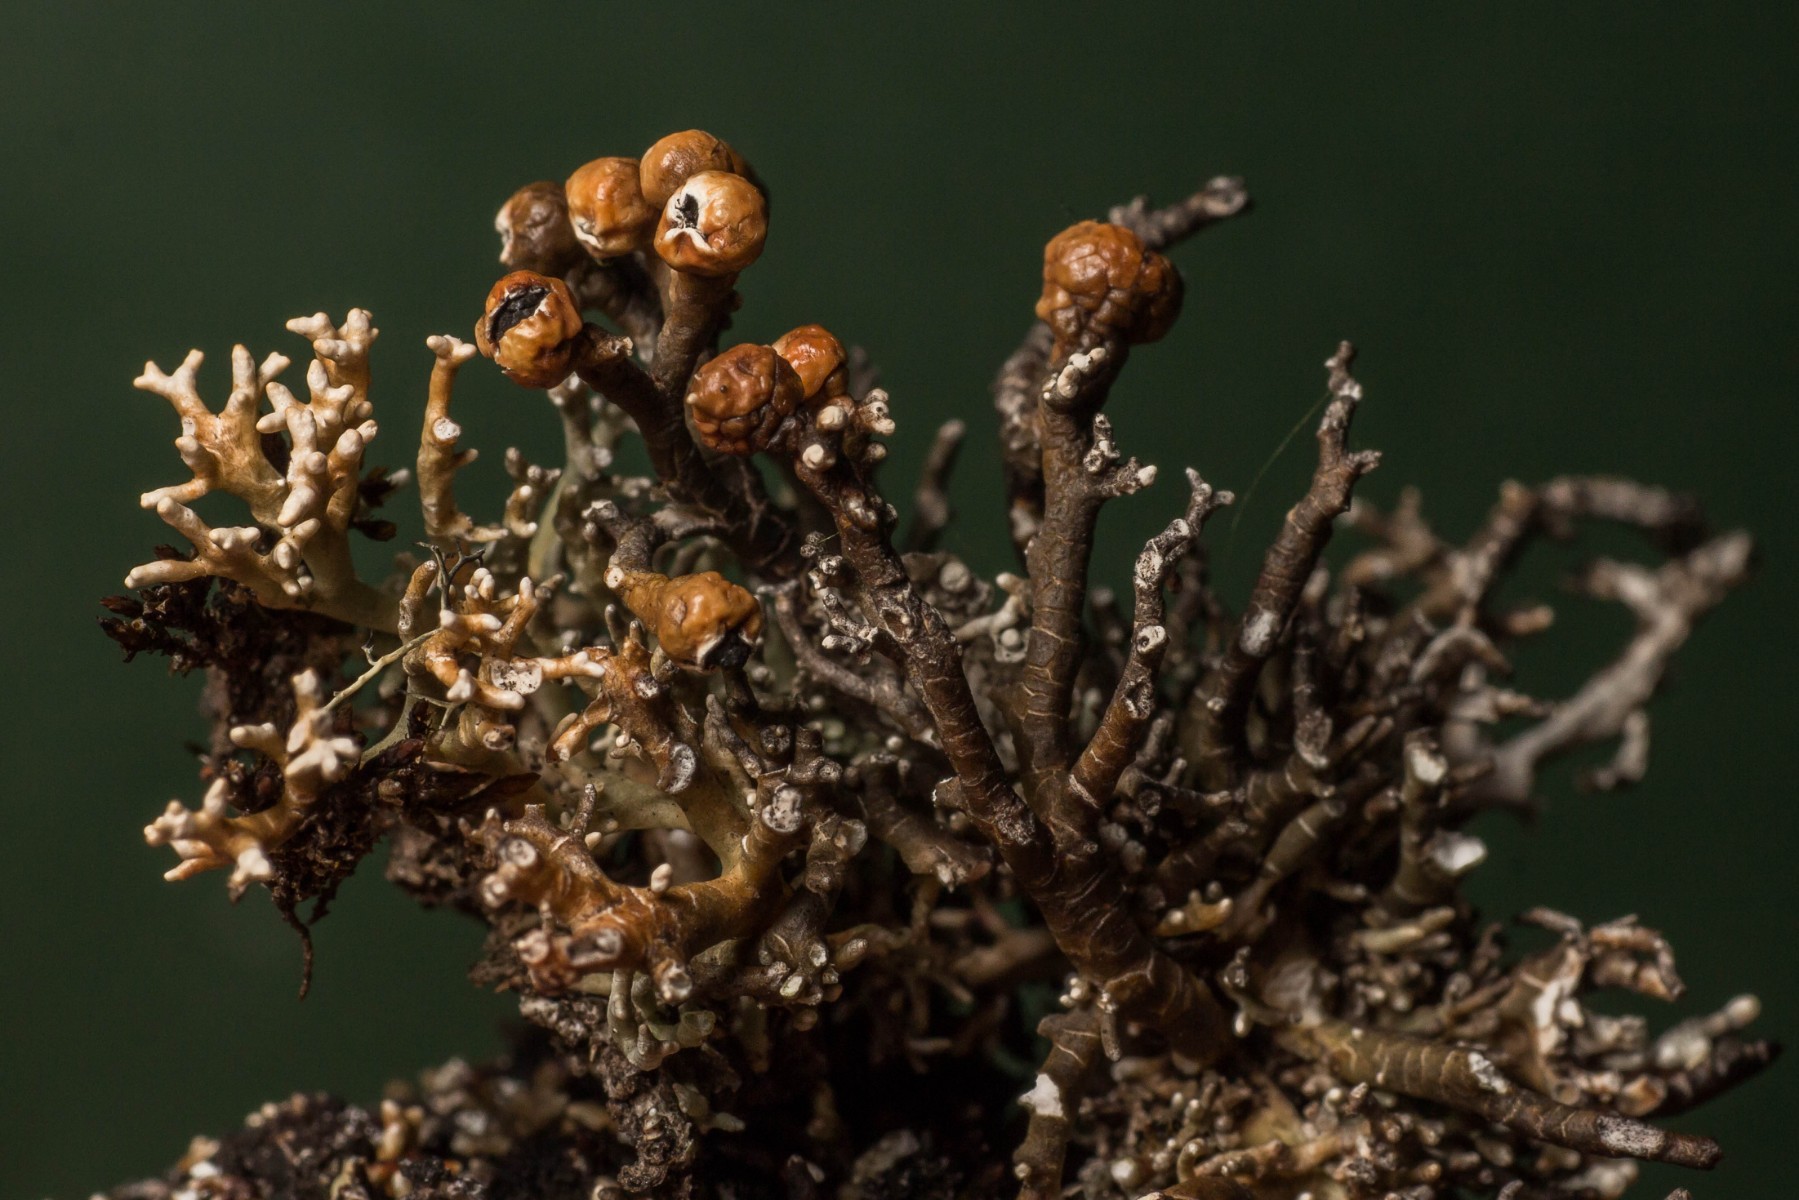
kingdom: Fungi
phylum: Ascomycota
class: Lecanoromycetes
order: Lecanorales
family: Sphaerophoraceae
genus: Sphaerophorus
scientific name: Sphaerophorus globosus
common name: almindelig kuglelav
